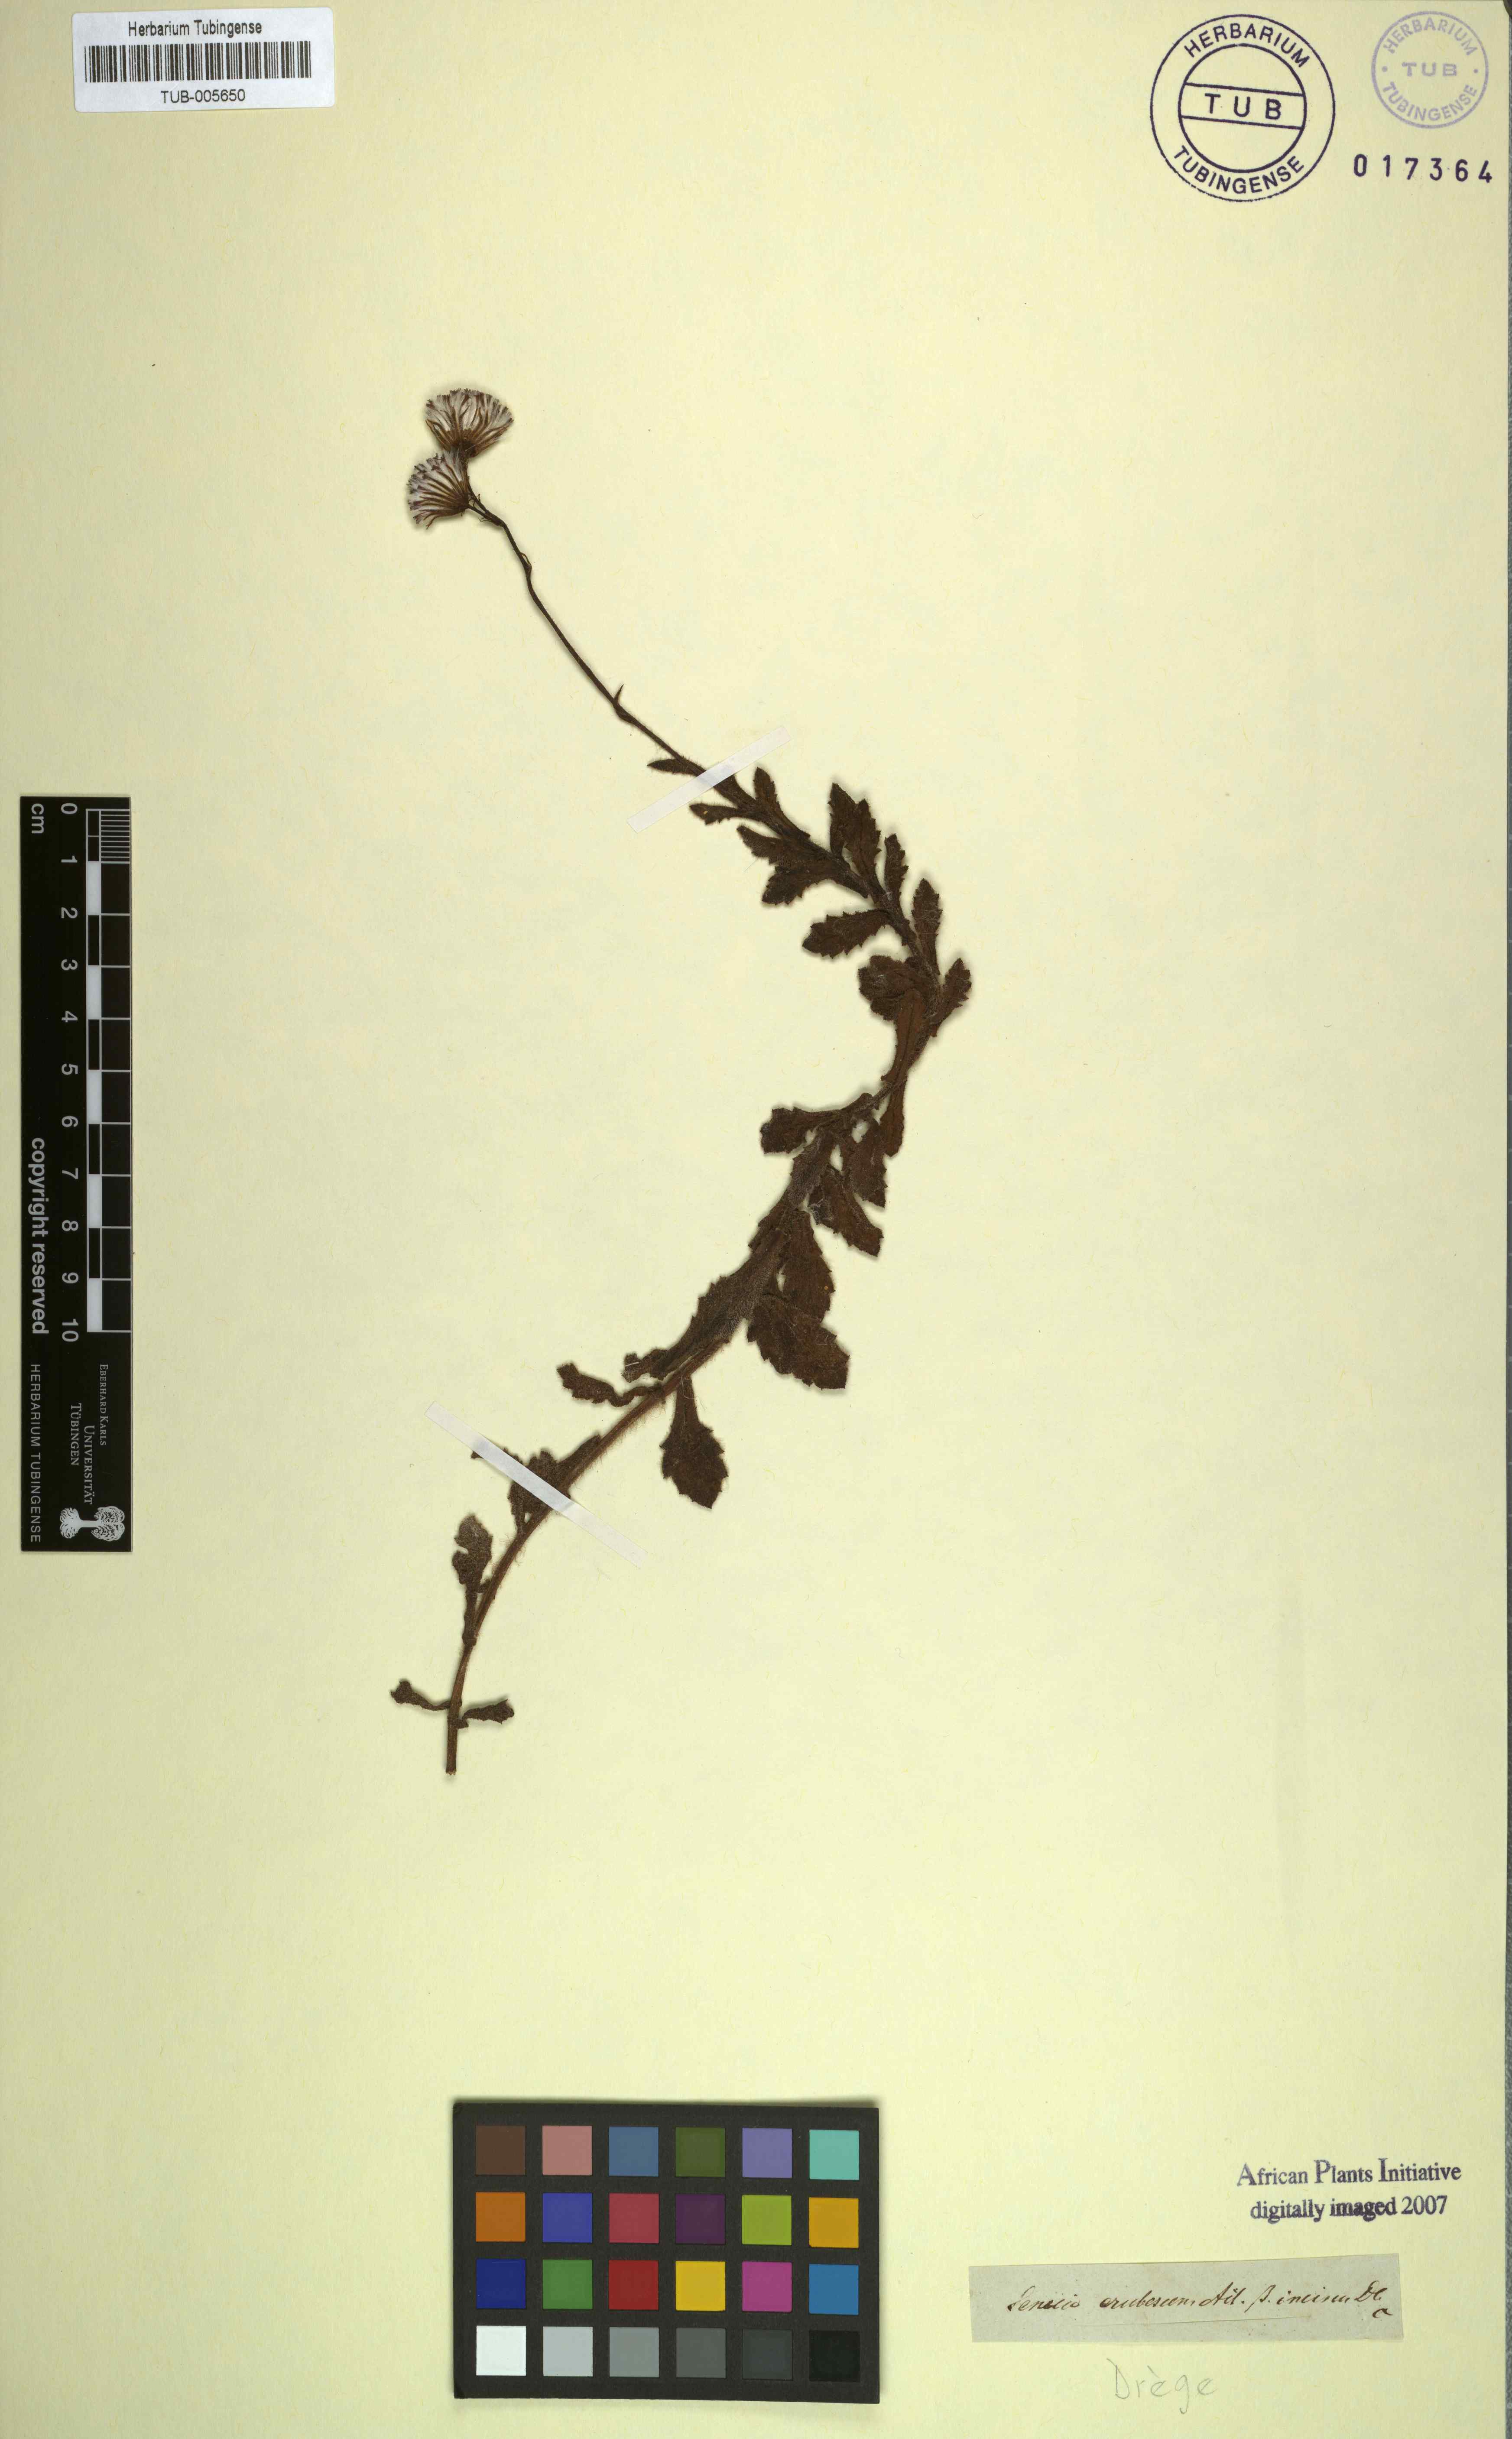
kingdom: Plantae
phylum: Tracheophyta
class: Magnoliopsida
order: Asterales
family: Asteraceae
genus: Senecio
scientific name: Senecio erubescens
